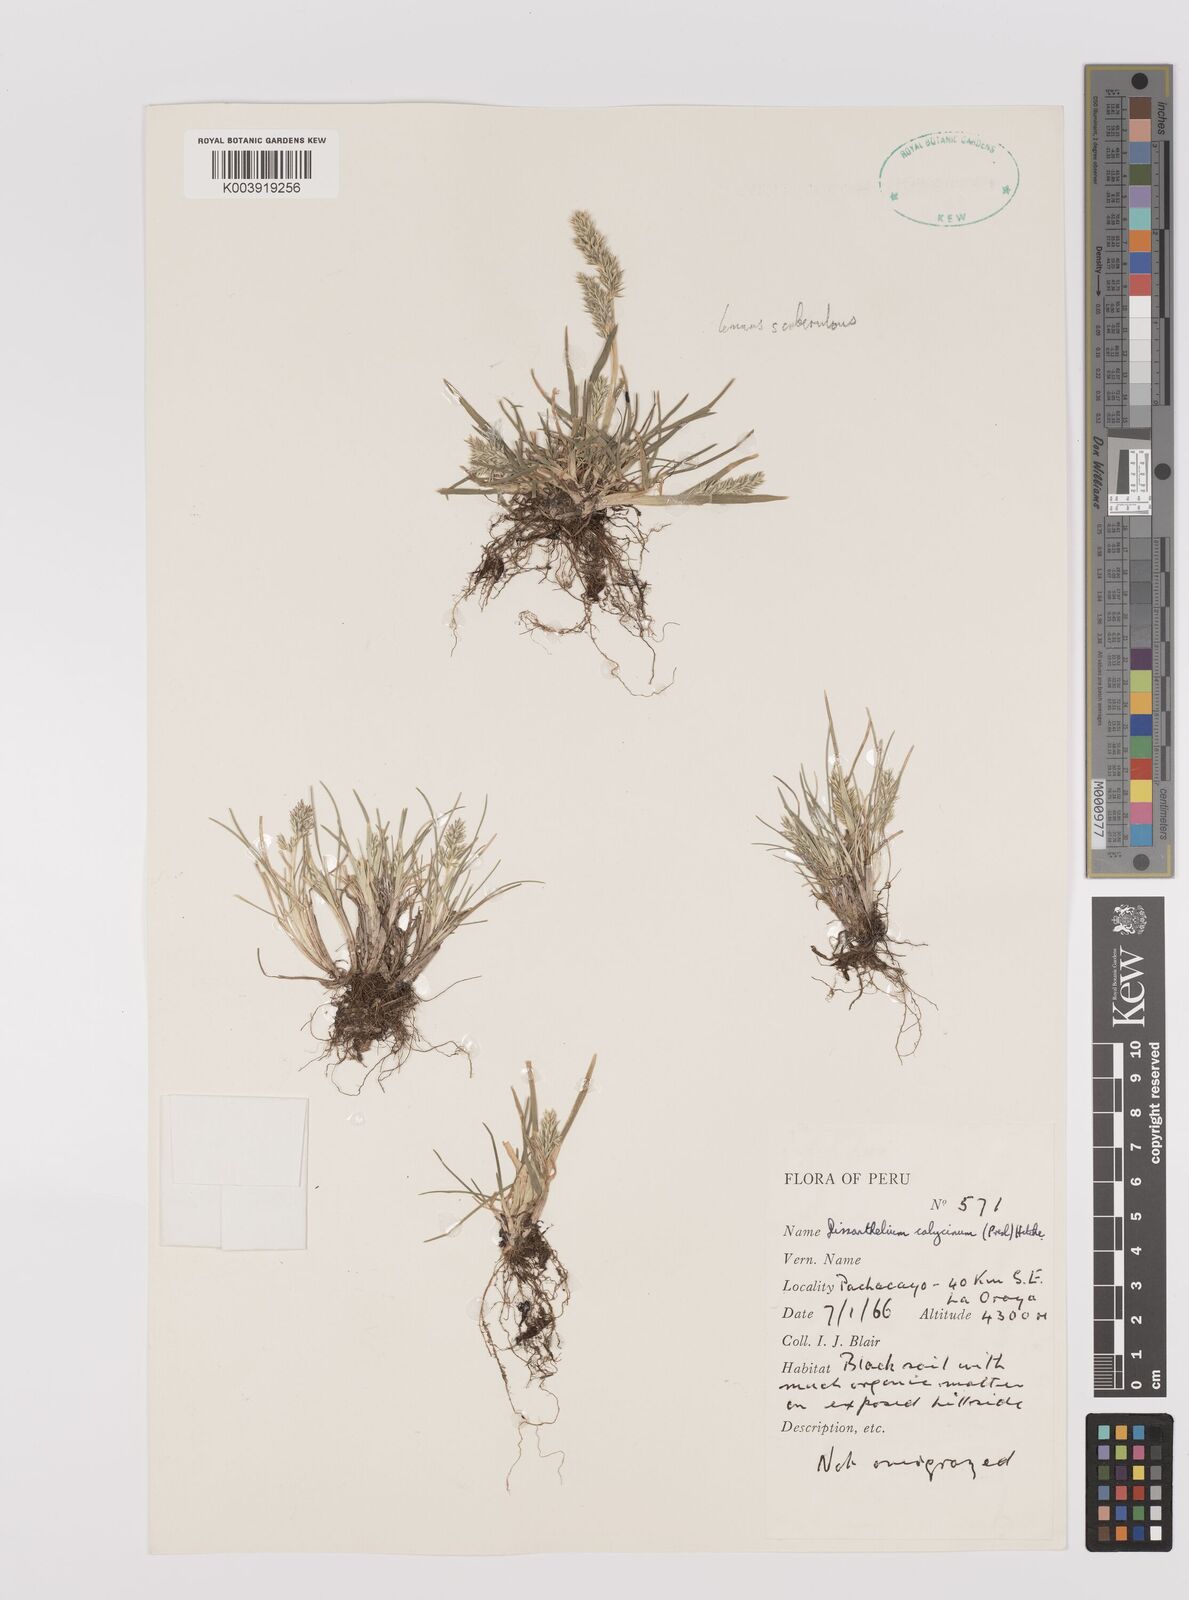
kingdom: Plantae
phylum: Tracheophyta
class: Liliopsida
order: Poales
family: Poaceae
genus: Poa
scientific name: Poa calycina
